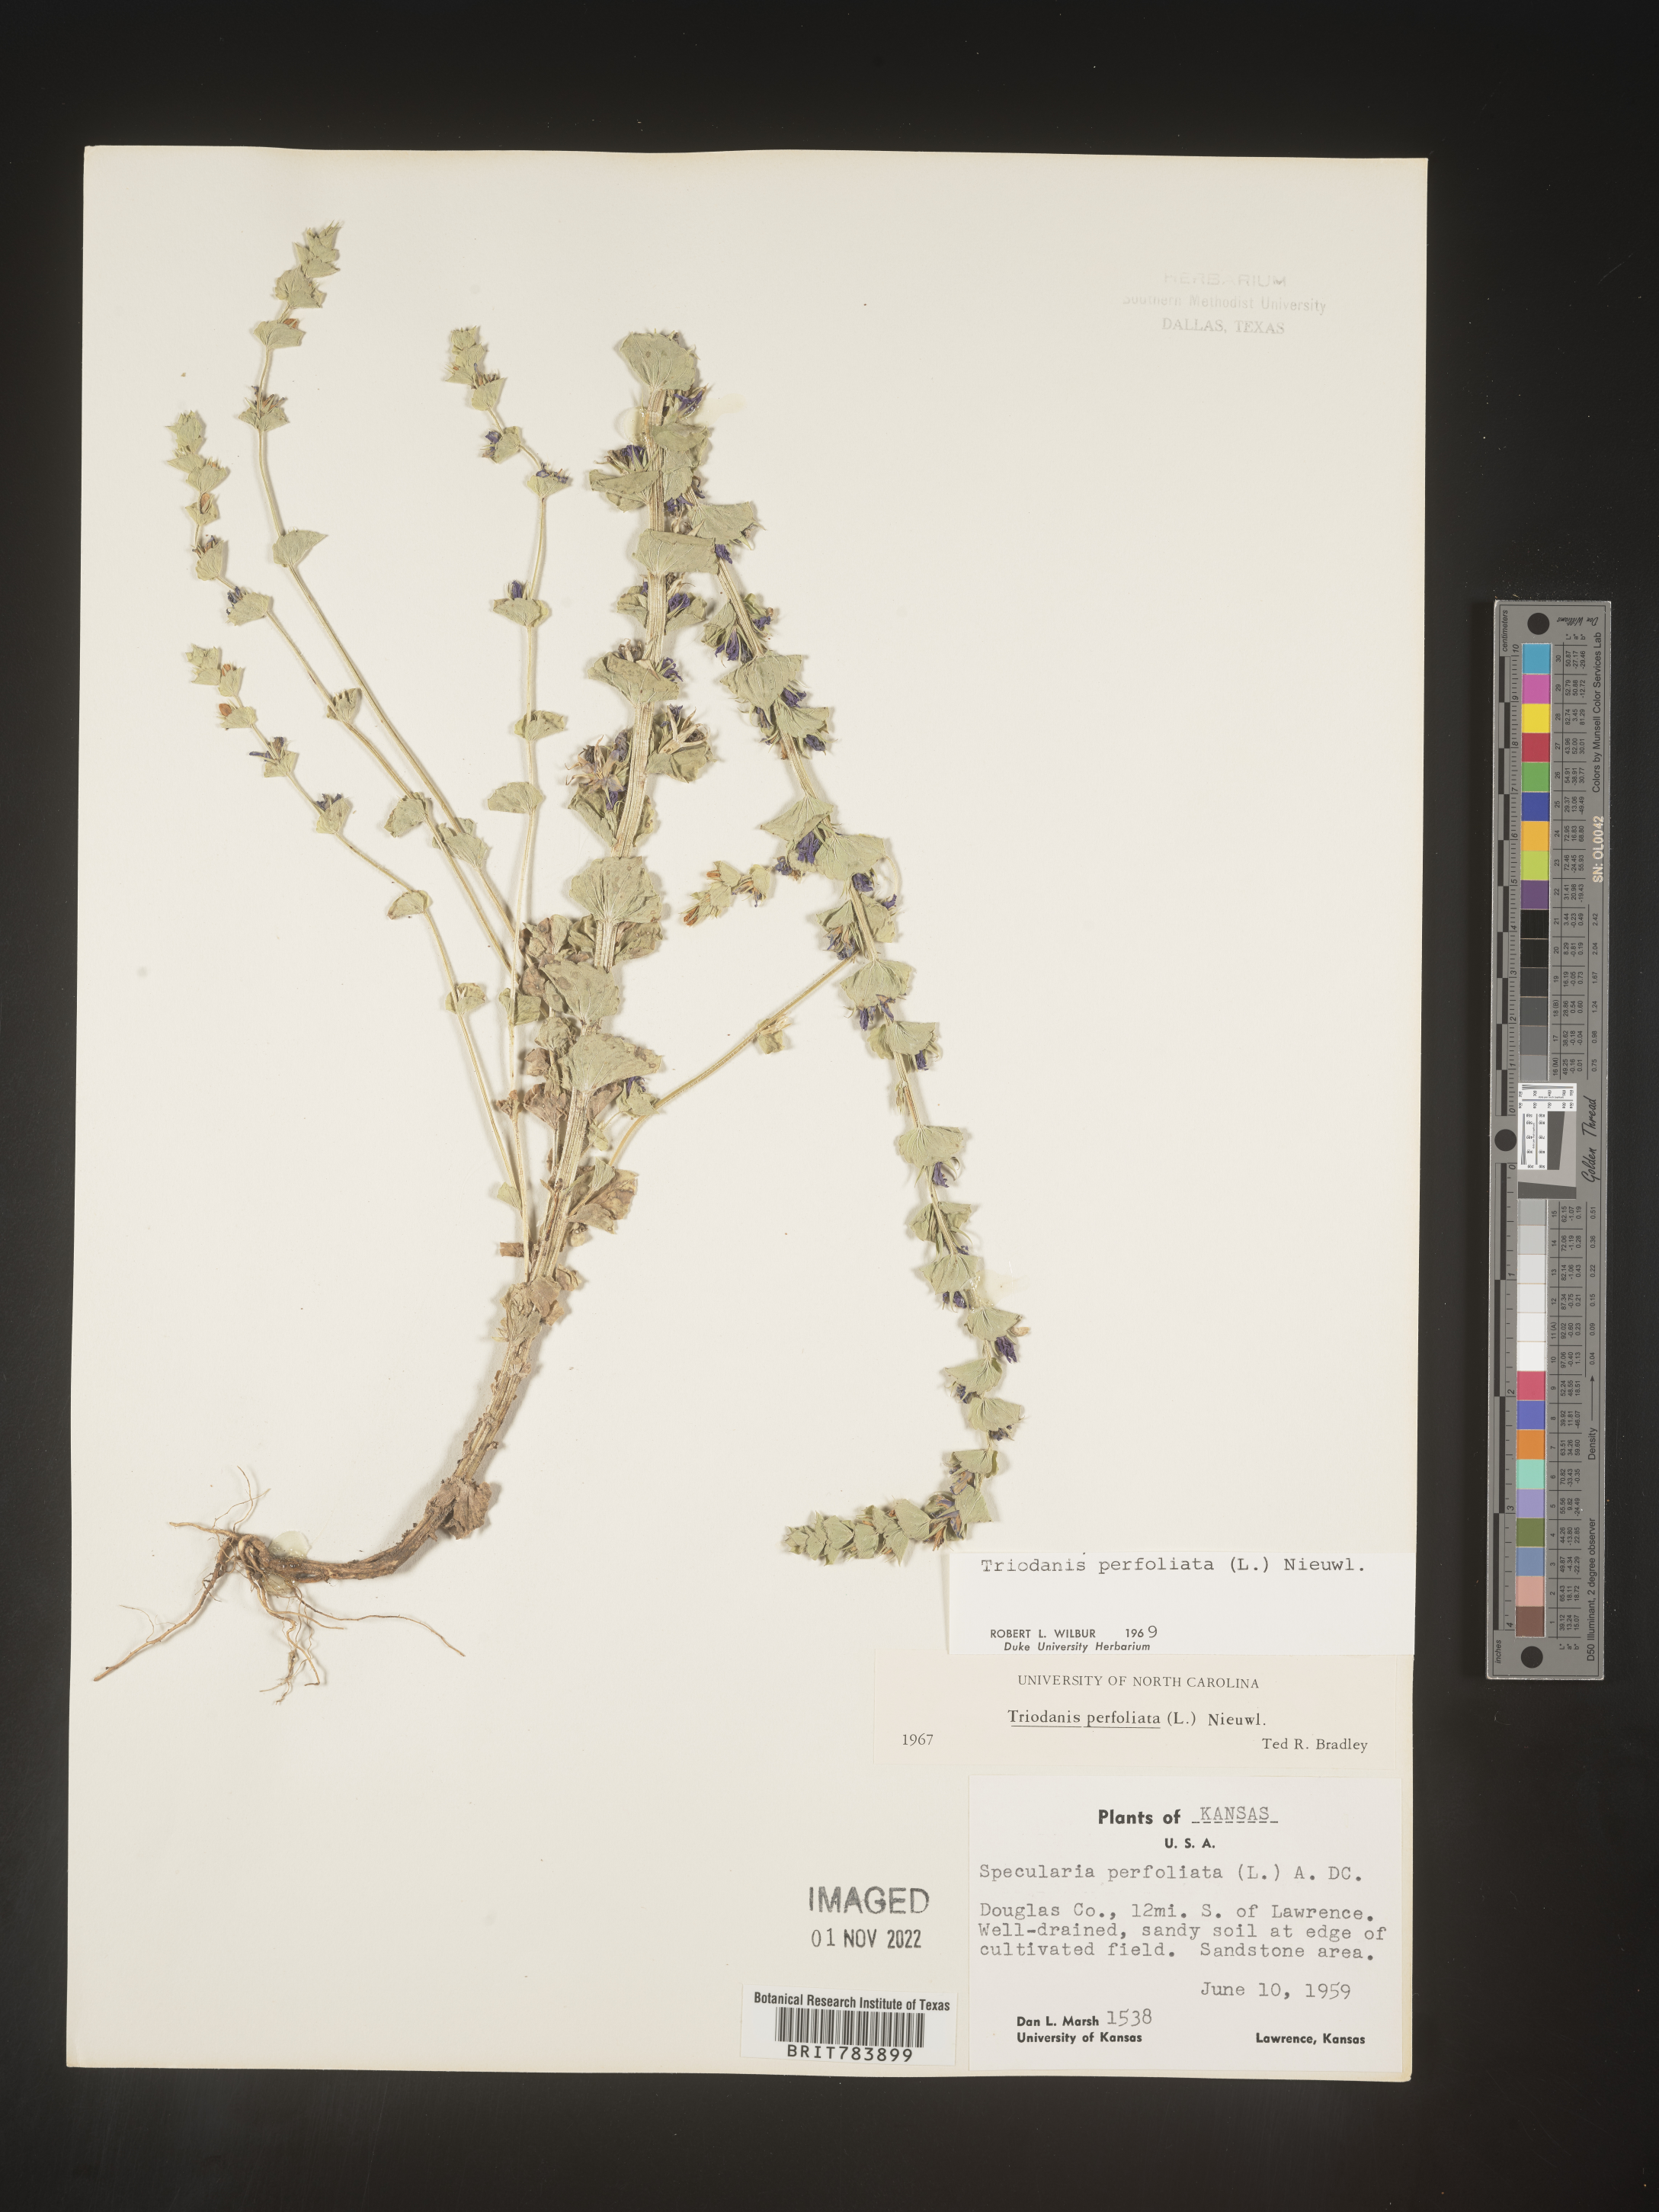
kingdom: Plantae
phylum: Tracheophyta
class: Magnoliopsida
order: Asterales
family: Campanulaceae
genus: Triodanis
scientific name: Triodanis perfoliata
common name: Clasping venus' looking-glass
